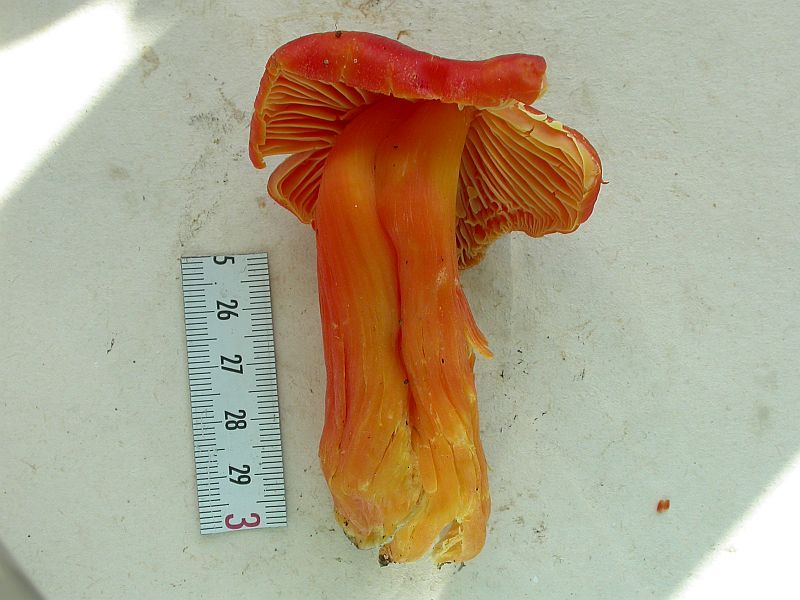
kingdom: Fungi
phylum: Basidiomycota
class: Agaricomycetes
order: Agaricales
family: Hygrophoraceae
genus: Hygrocybe
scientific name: Hygrocybe splendidissima
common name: knaldrød vokshat
